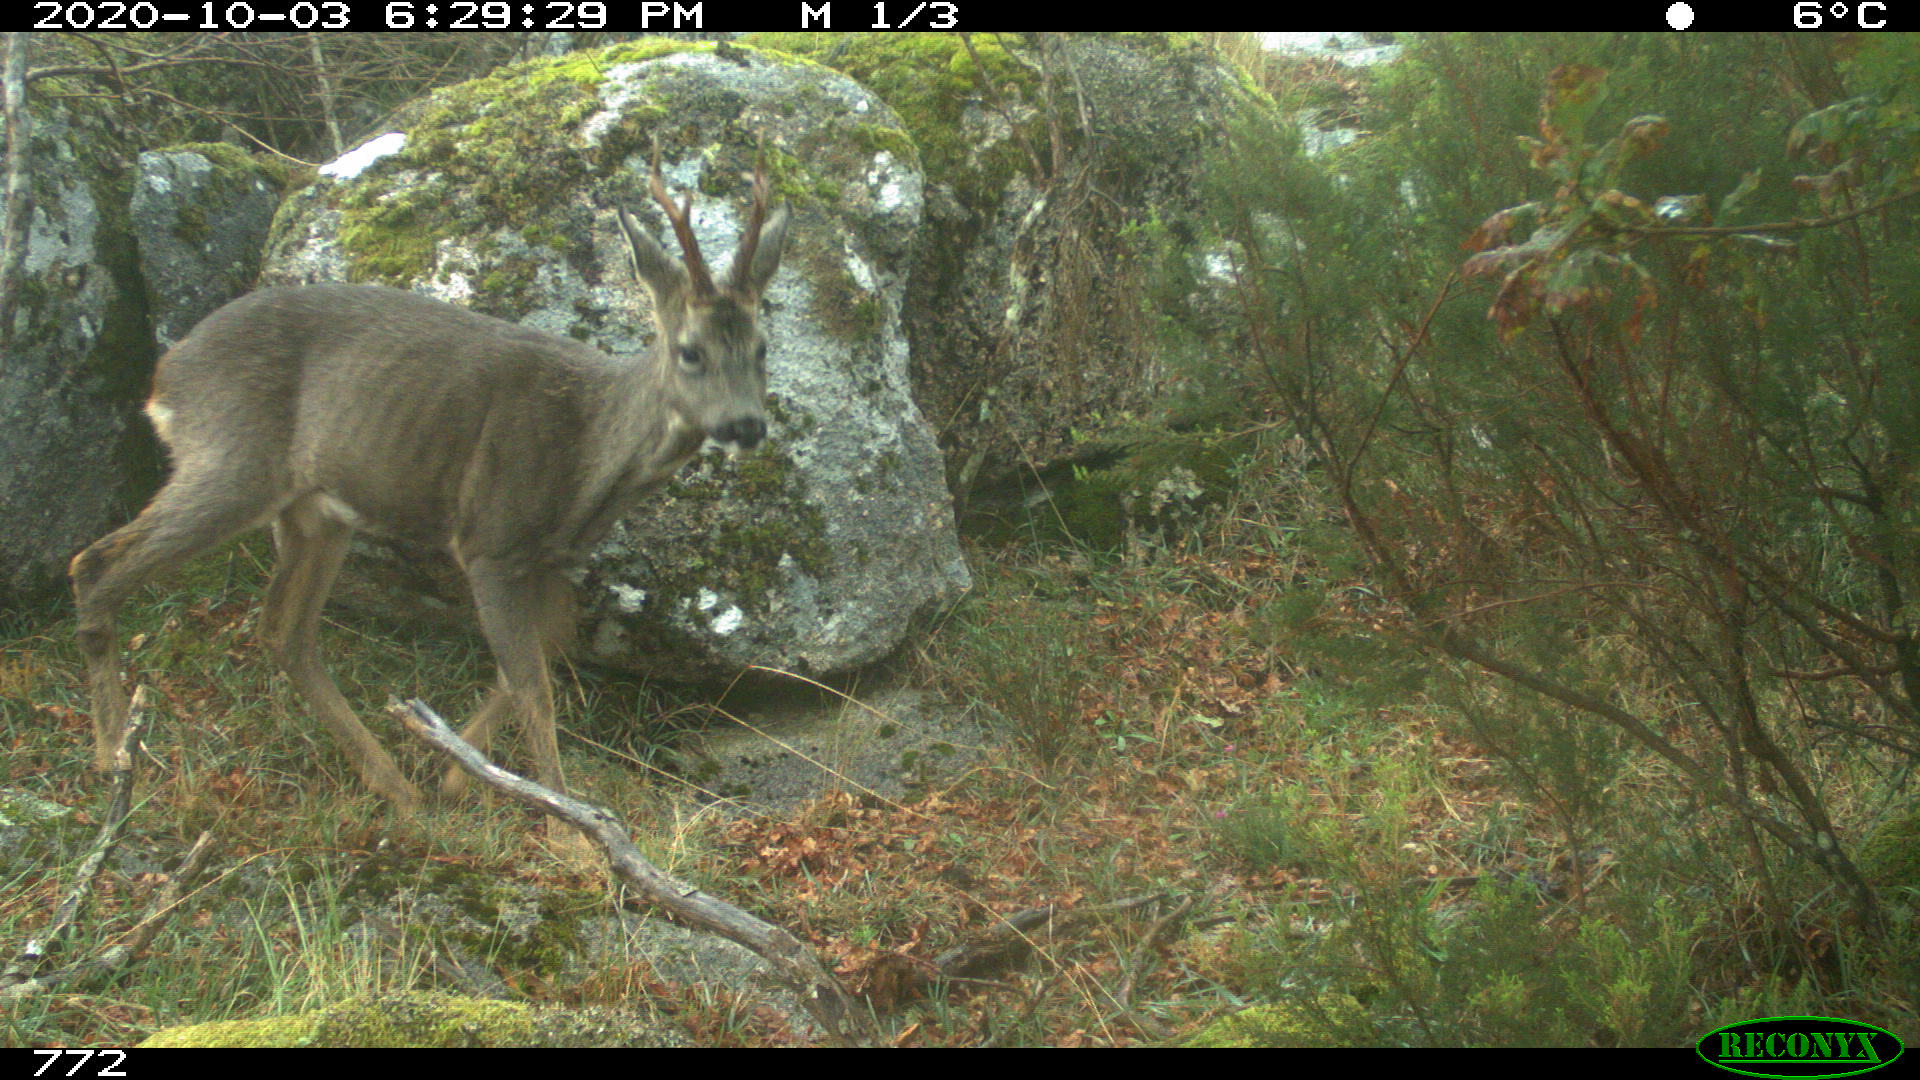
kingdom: Animalia
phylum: Chordata
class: Mammalia
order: Artiodactyla
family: Cervidae
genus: Capreolus
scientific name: Capreolus capreolus
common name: Western roe deer
